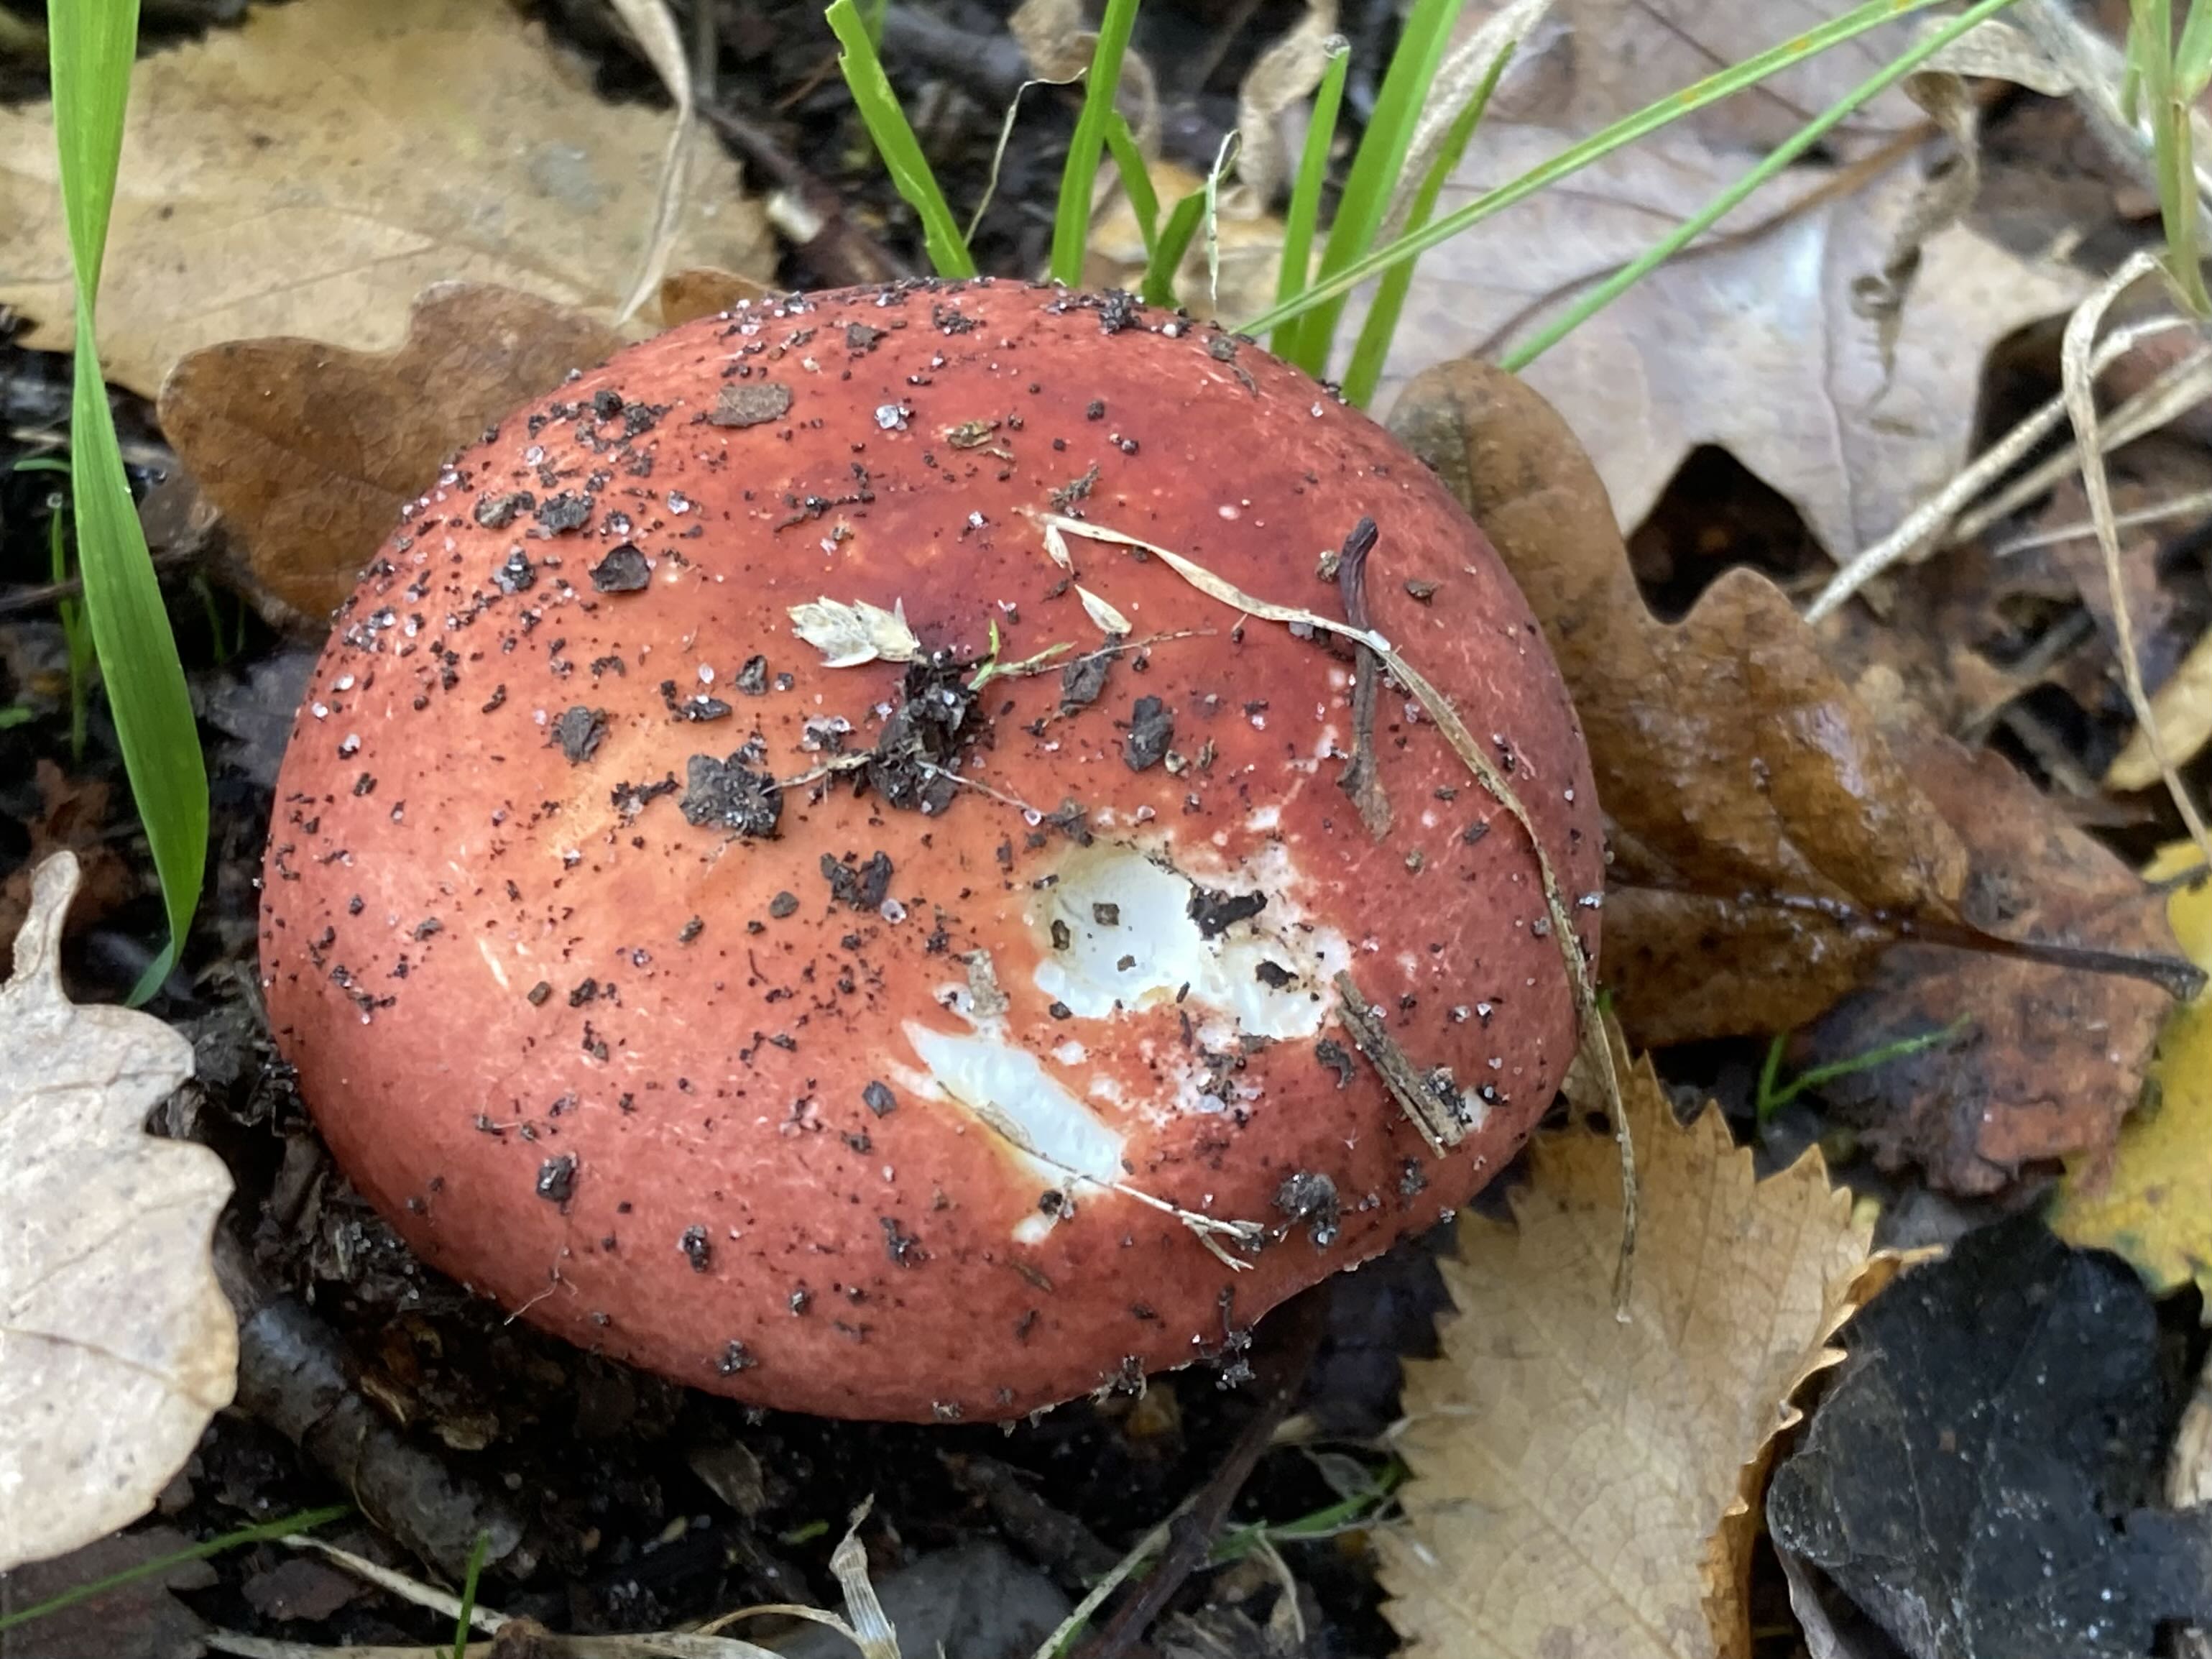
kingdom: Fungi
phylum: Basidiomycota
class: Agaricomycetes
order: Russulales
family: Russulaceae
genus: Russula
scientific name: Russula
